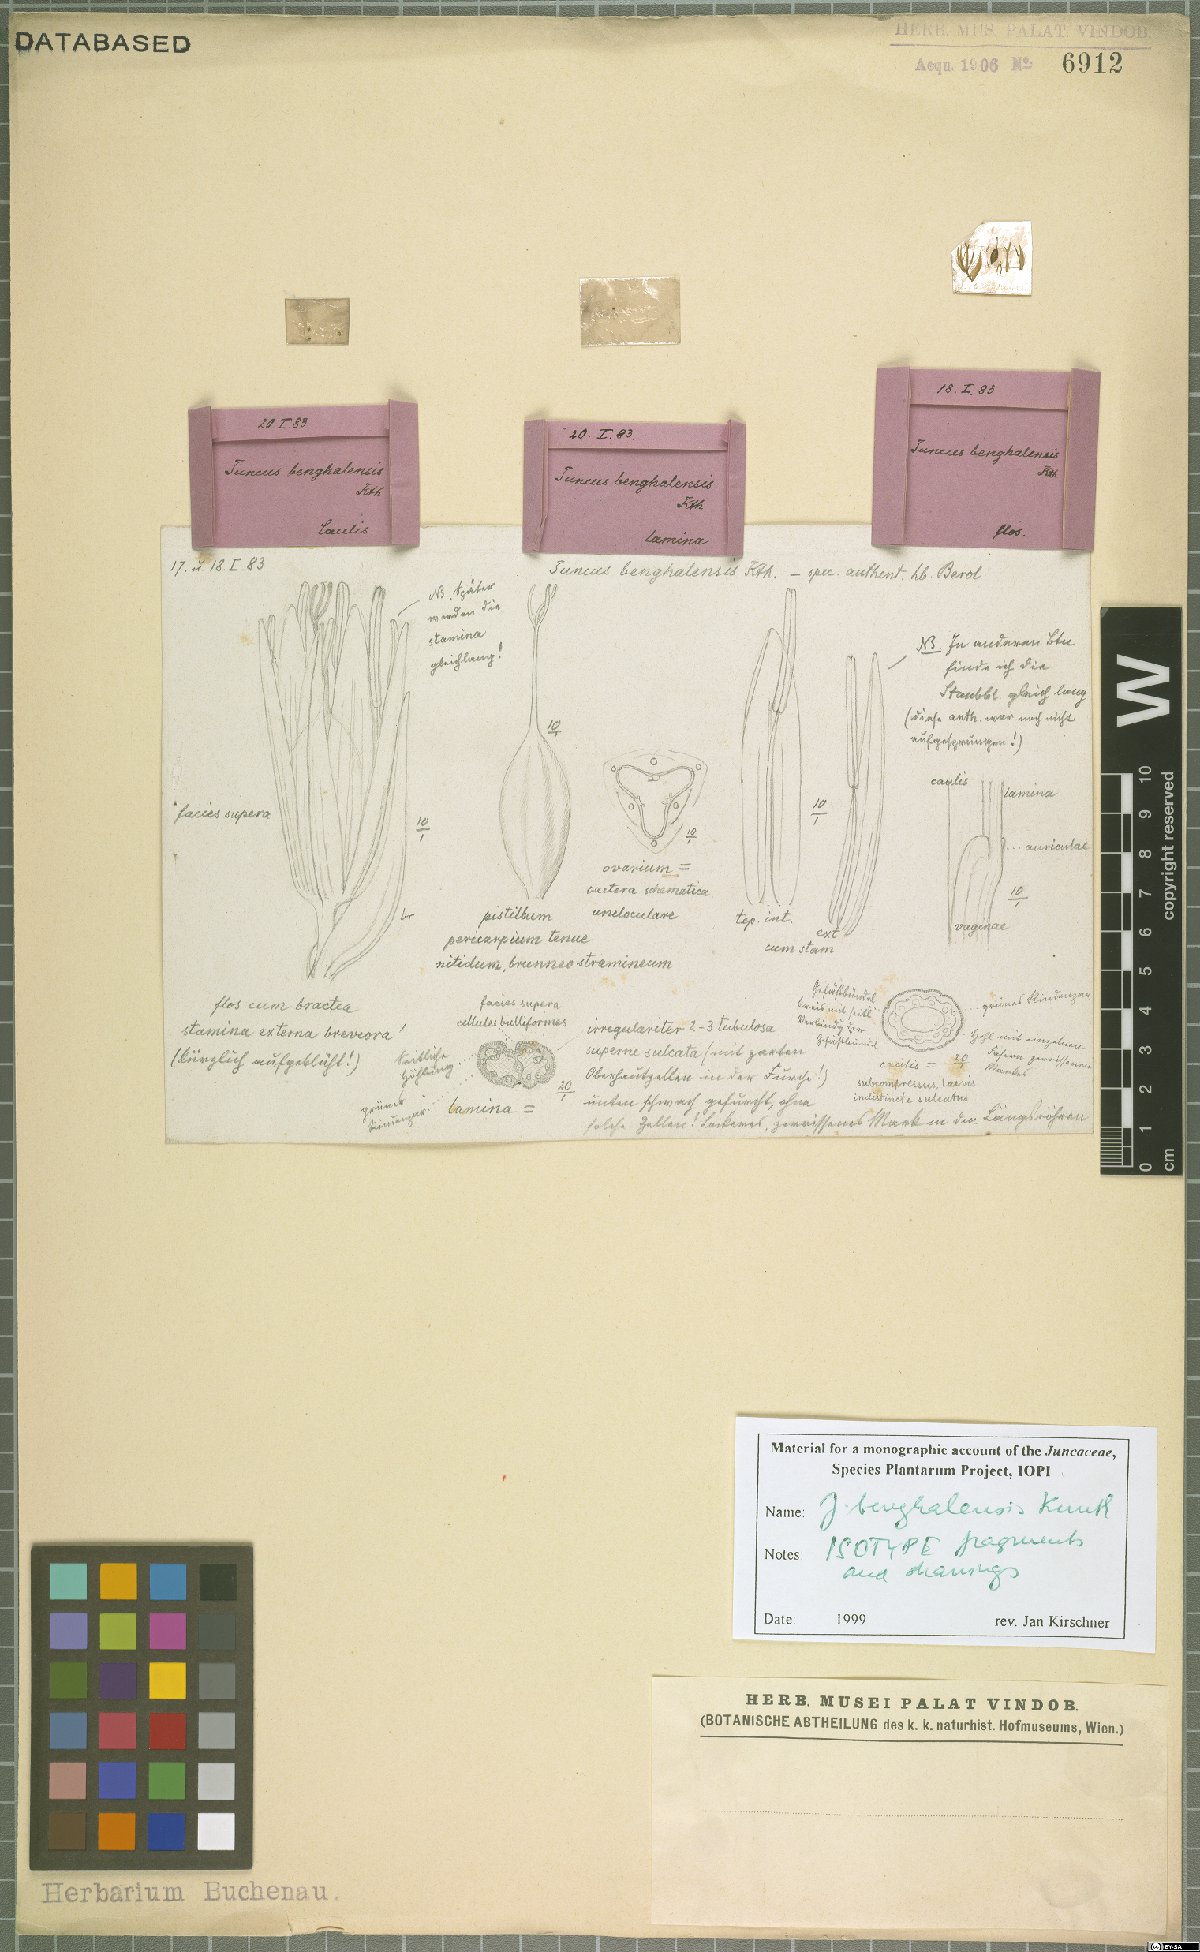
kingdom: Plantae
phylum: Tracheophyta
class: Liliopsida
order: Poales
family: Juncaceae
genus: Juncus
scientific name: Juncus benghalensis
